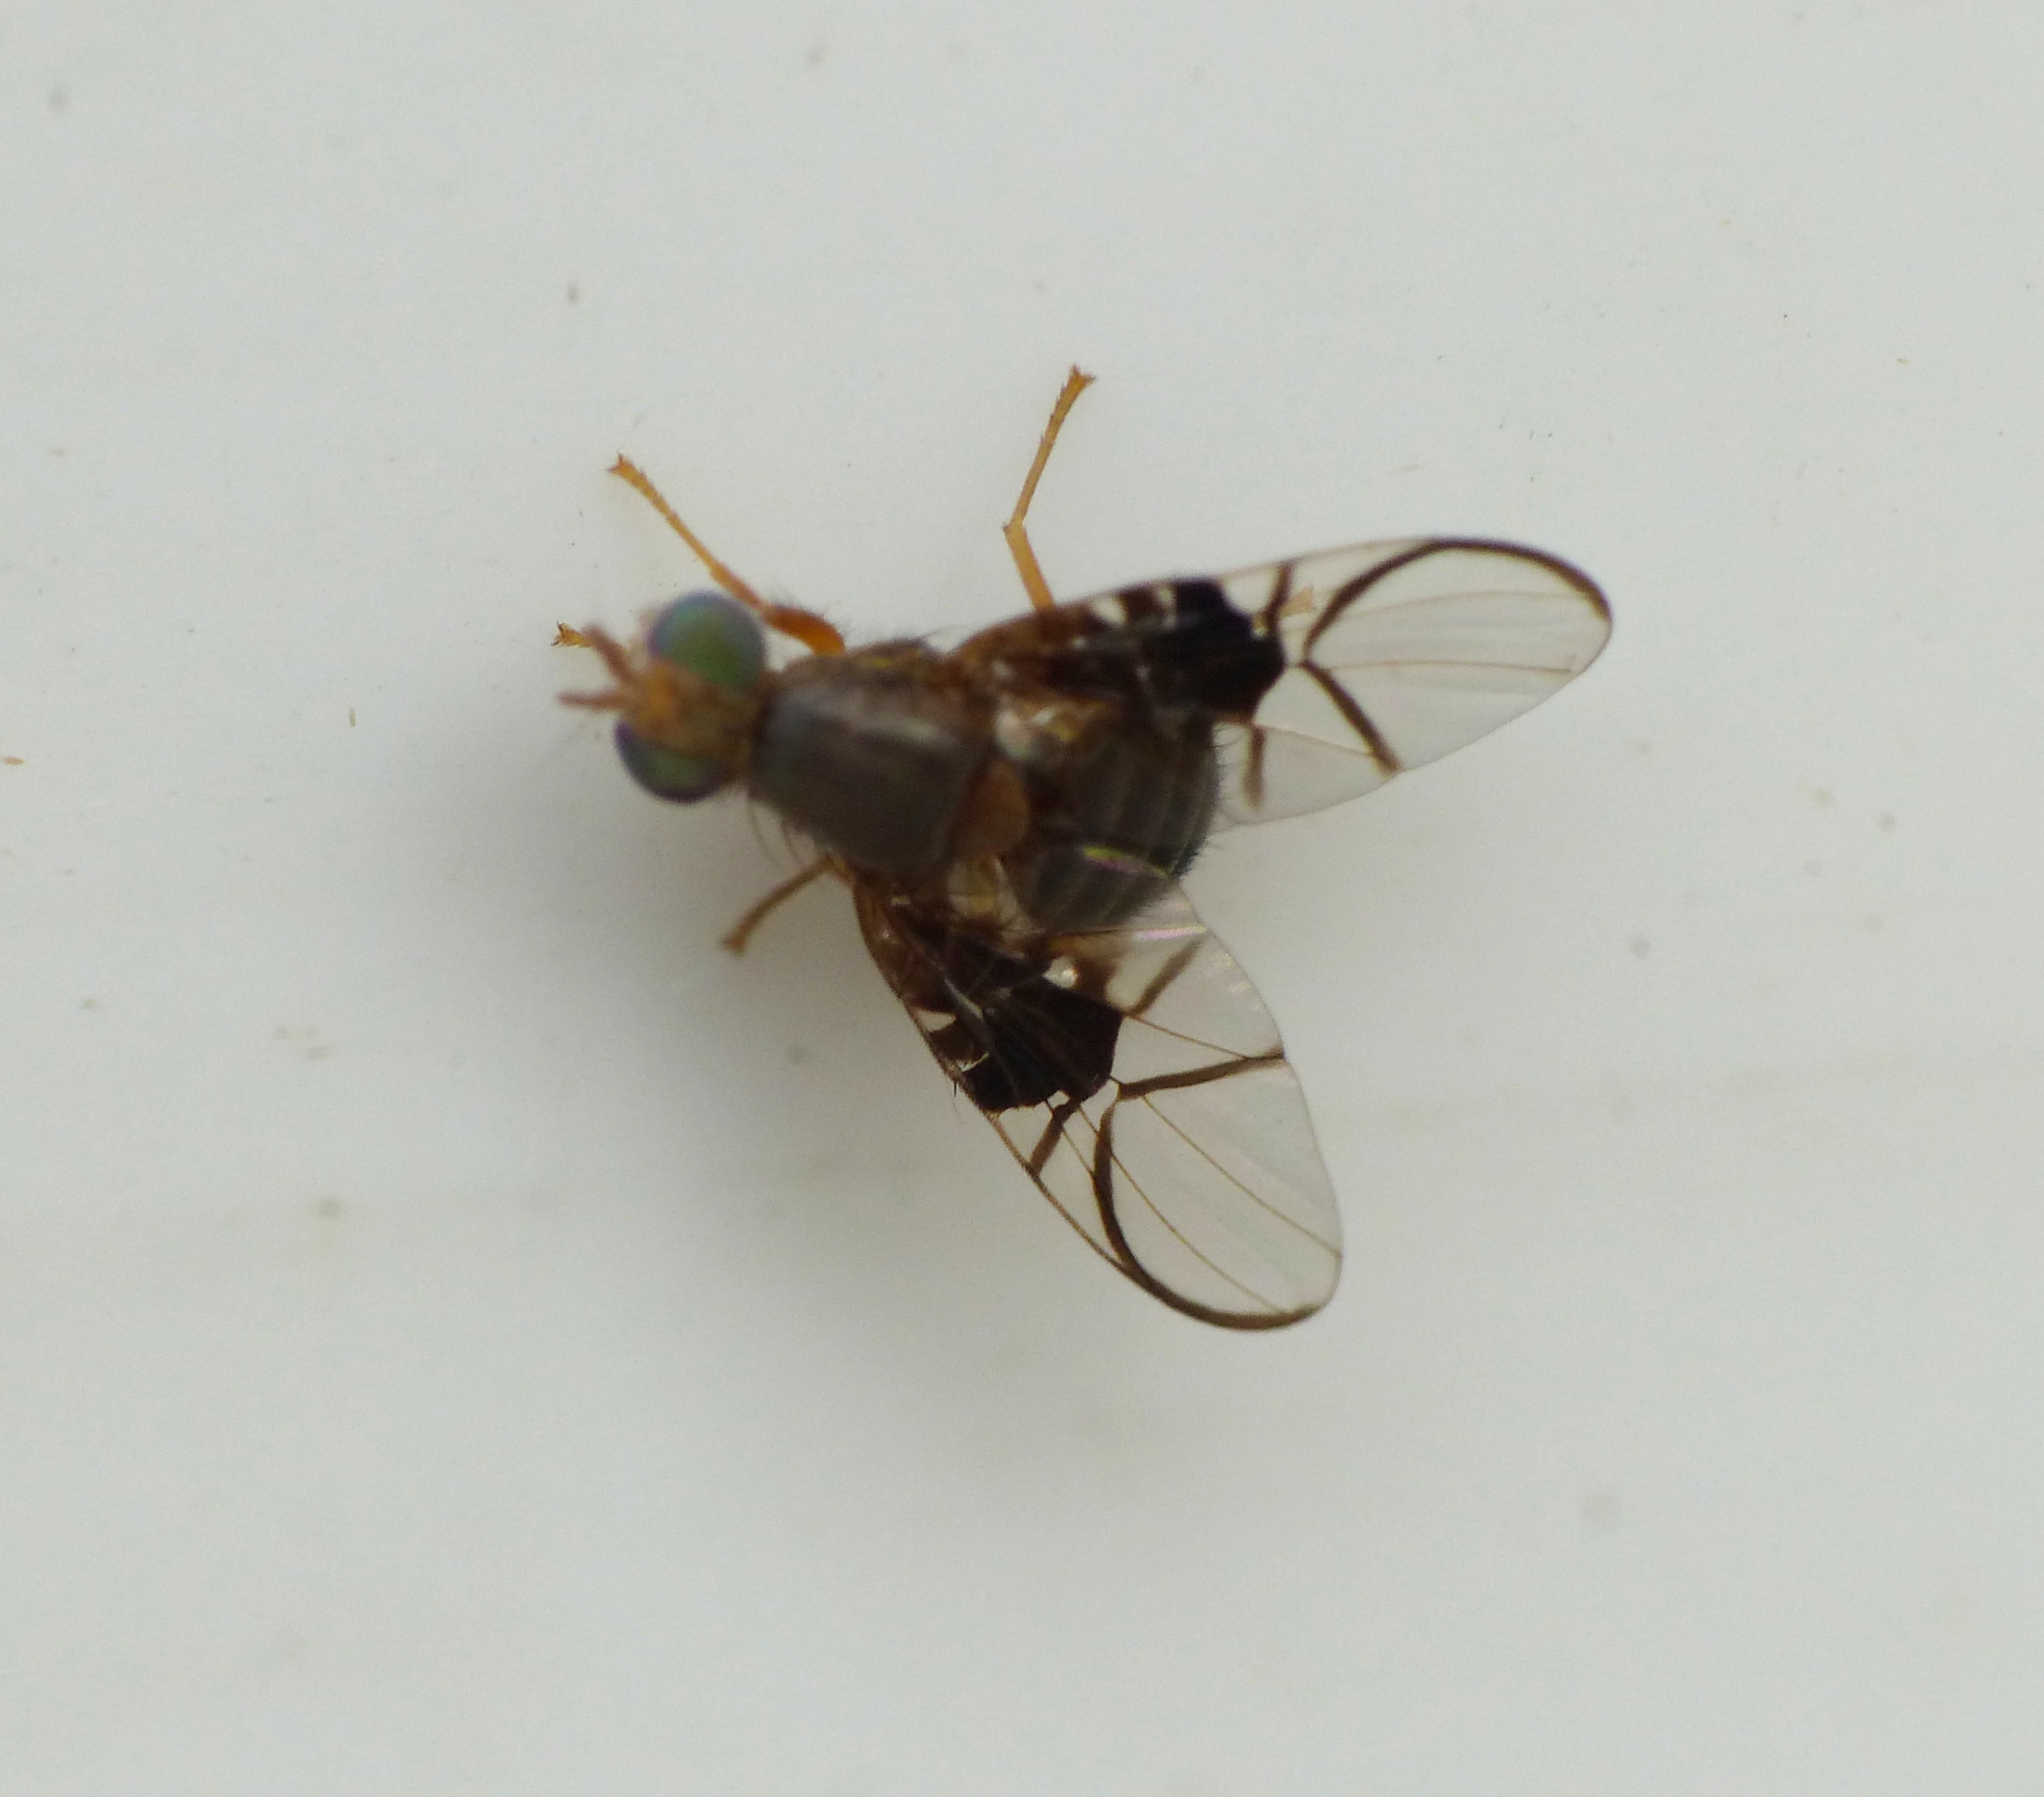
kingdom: Animalia
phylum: Arthropoda
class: Insecta
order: Diptera
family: Tephritidae
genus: Anomoia
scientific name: Anomoia purmunda
